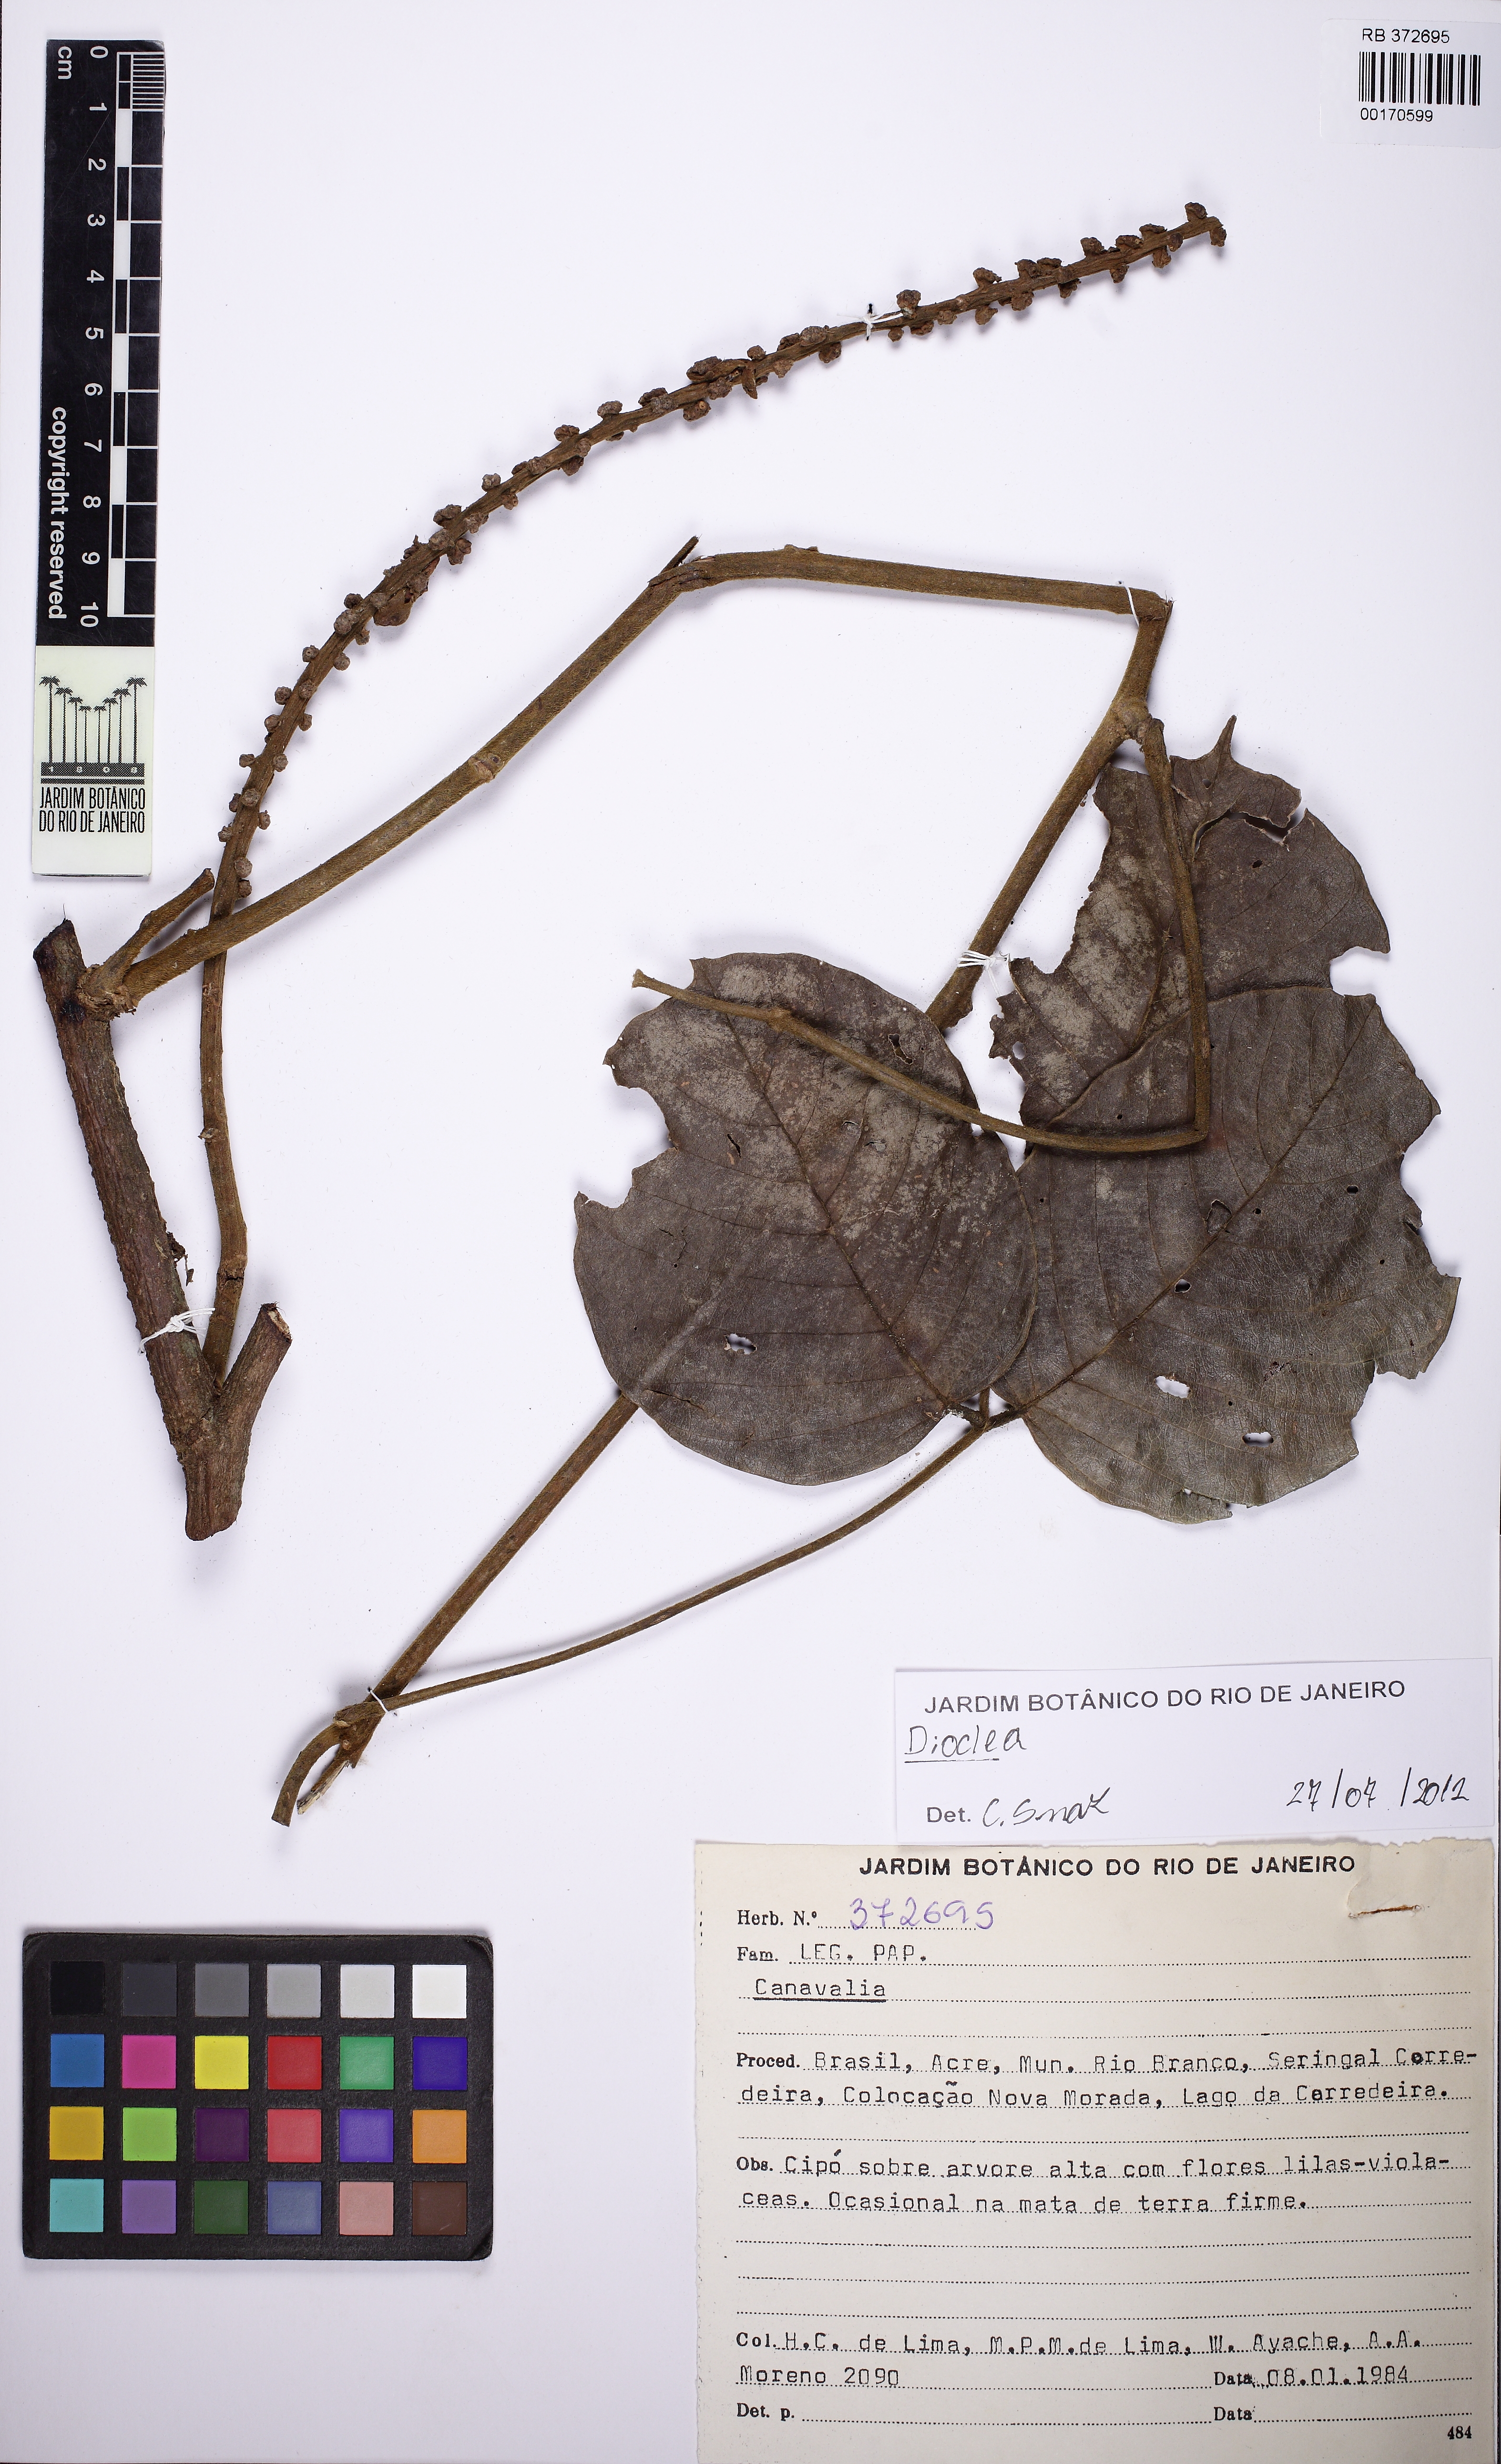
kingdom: Plantae
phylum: Tracheophyta
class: Magnoliopsida
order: Fabales
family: Fabaceae
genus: Dioclea
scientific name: Dioclea
